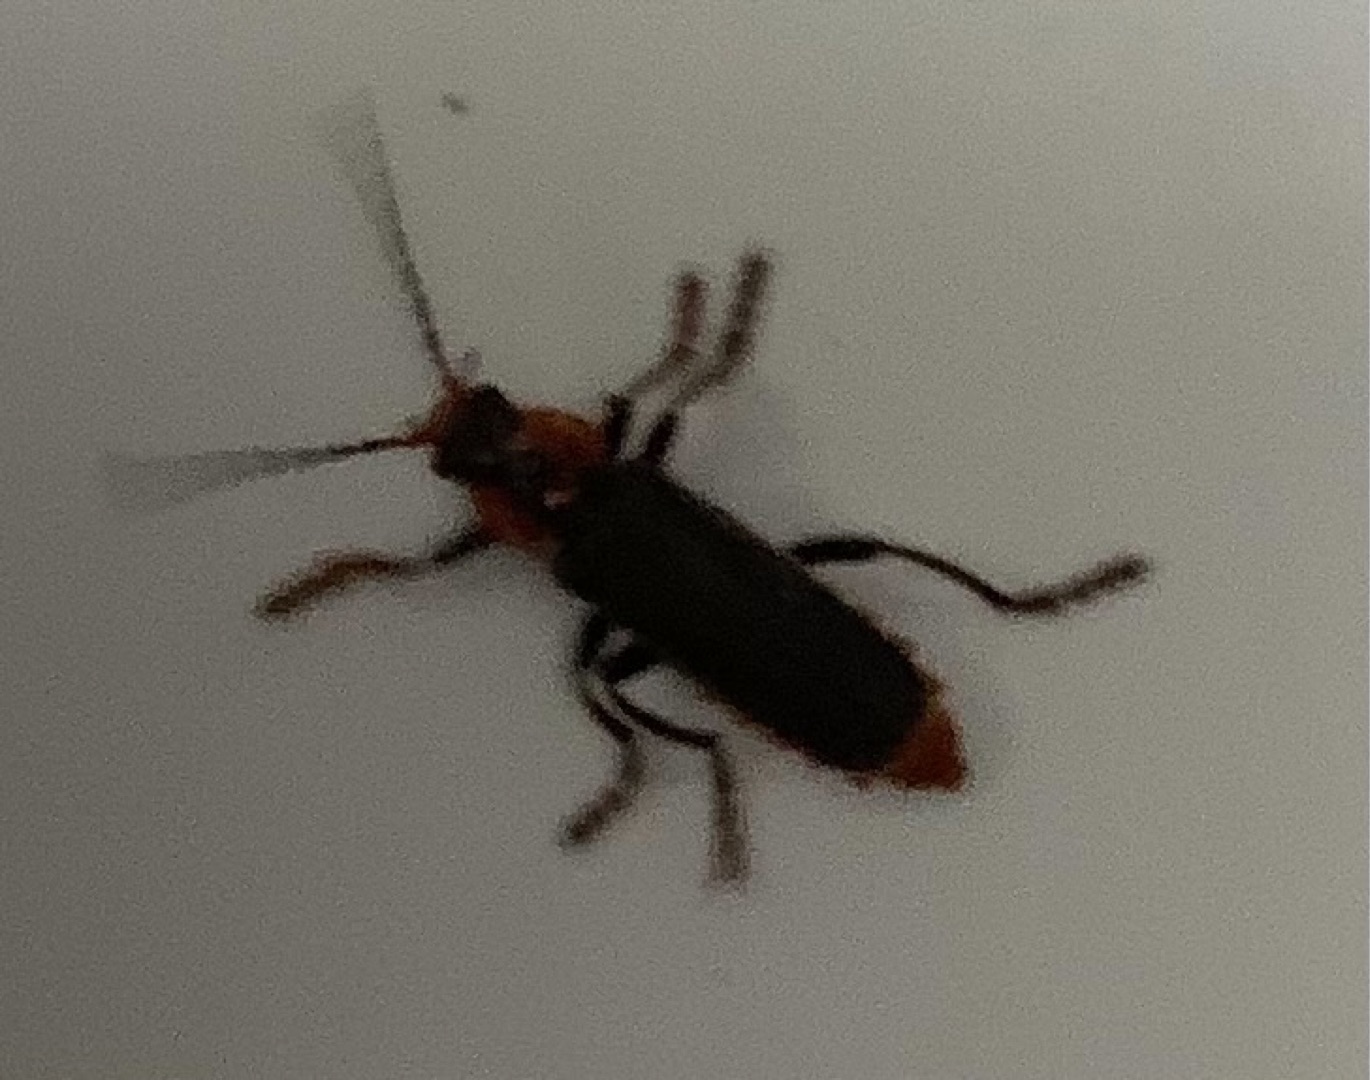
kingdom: Animalia
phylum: Arthropoda
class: Insecta
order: Coleoptera
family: Cantharidae
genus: Cantharis
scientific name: Cantharis
